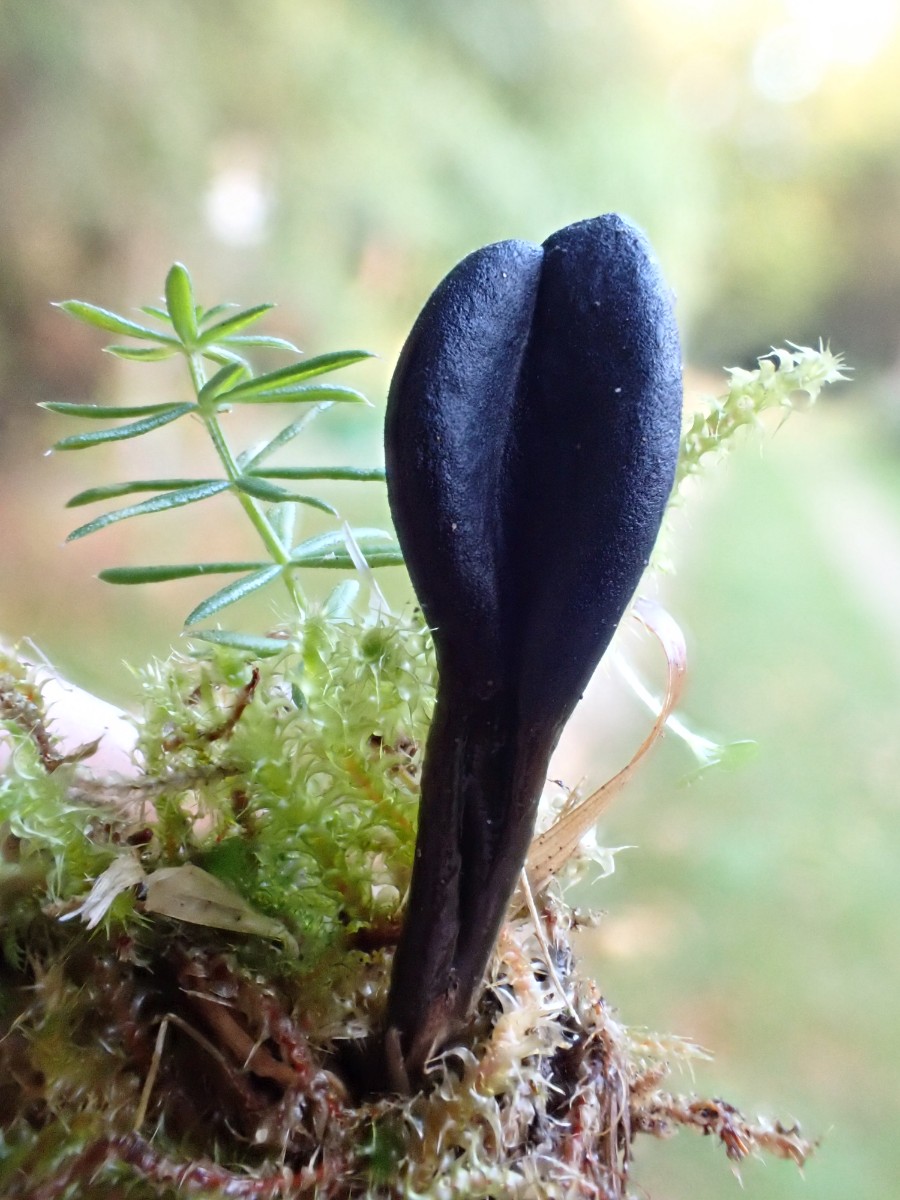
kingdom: Fungi
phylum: Ascomycota
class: Geoglossomycetes
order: Geoglossales
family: Geoglossaceae
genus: Geoglossum
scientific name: Geoglossum
